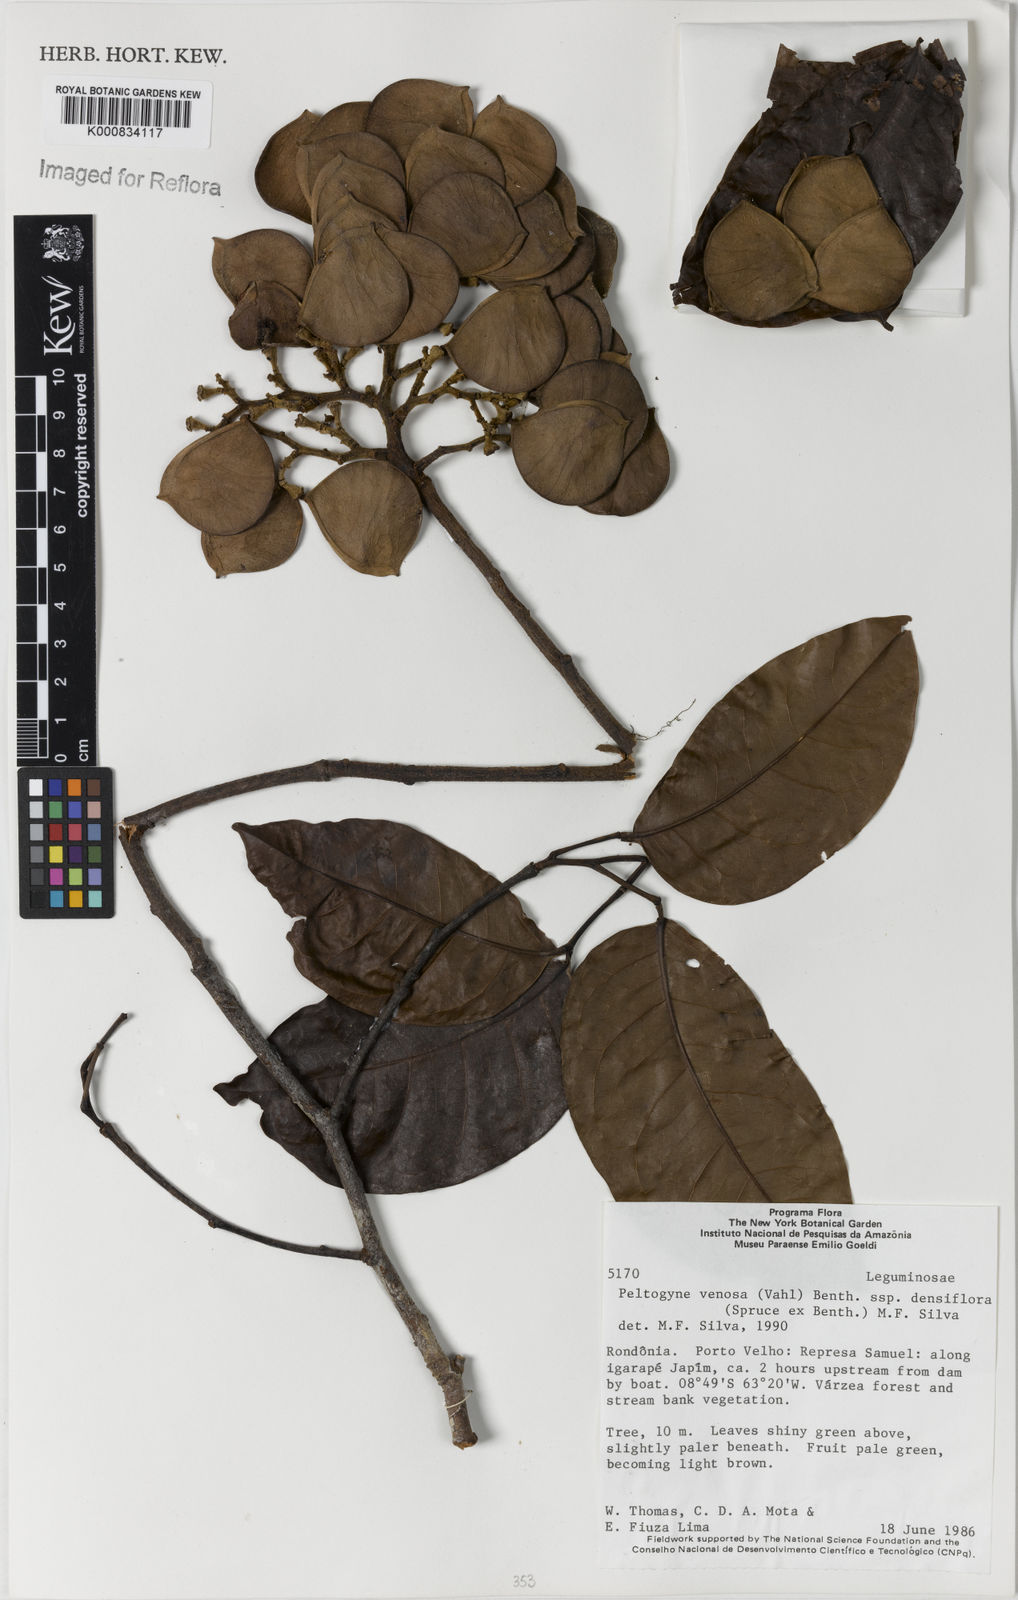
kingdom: Plantae
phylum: Tracheophyta
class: Magnoliopsida
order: Fabales
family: Fabaceae
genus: Peltogyne
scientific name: Peltogyne venosa
